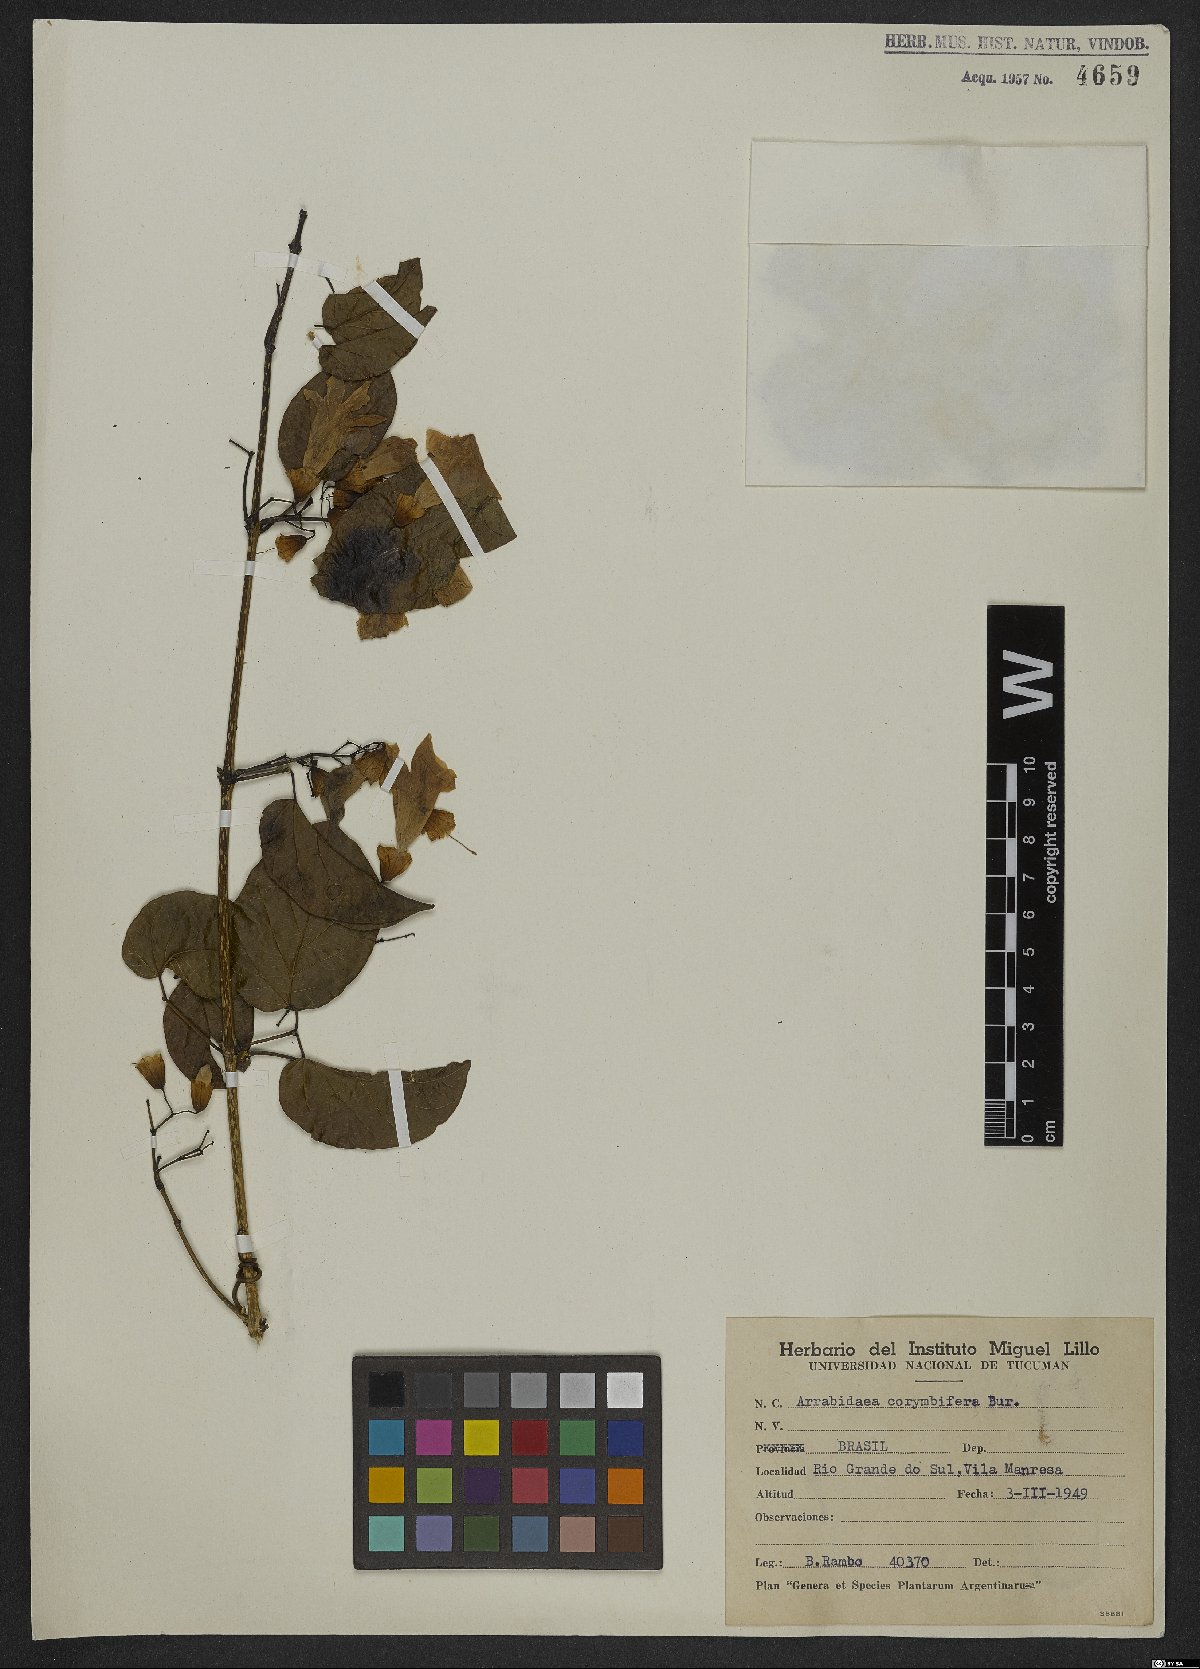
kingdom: Plantae
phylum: Tracheophyta
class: Magnoliopsida
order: Lamiales
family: Bignoniaceae
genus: Lundia
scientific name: Lundia corymbifera
